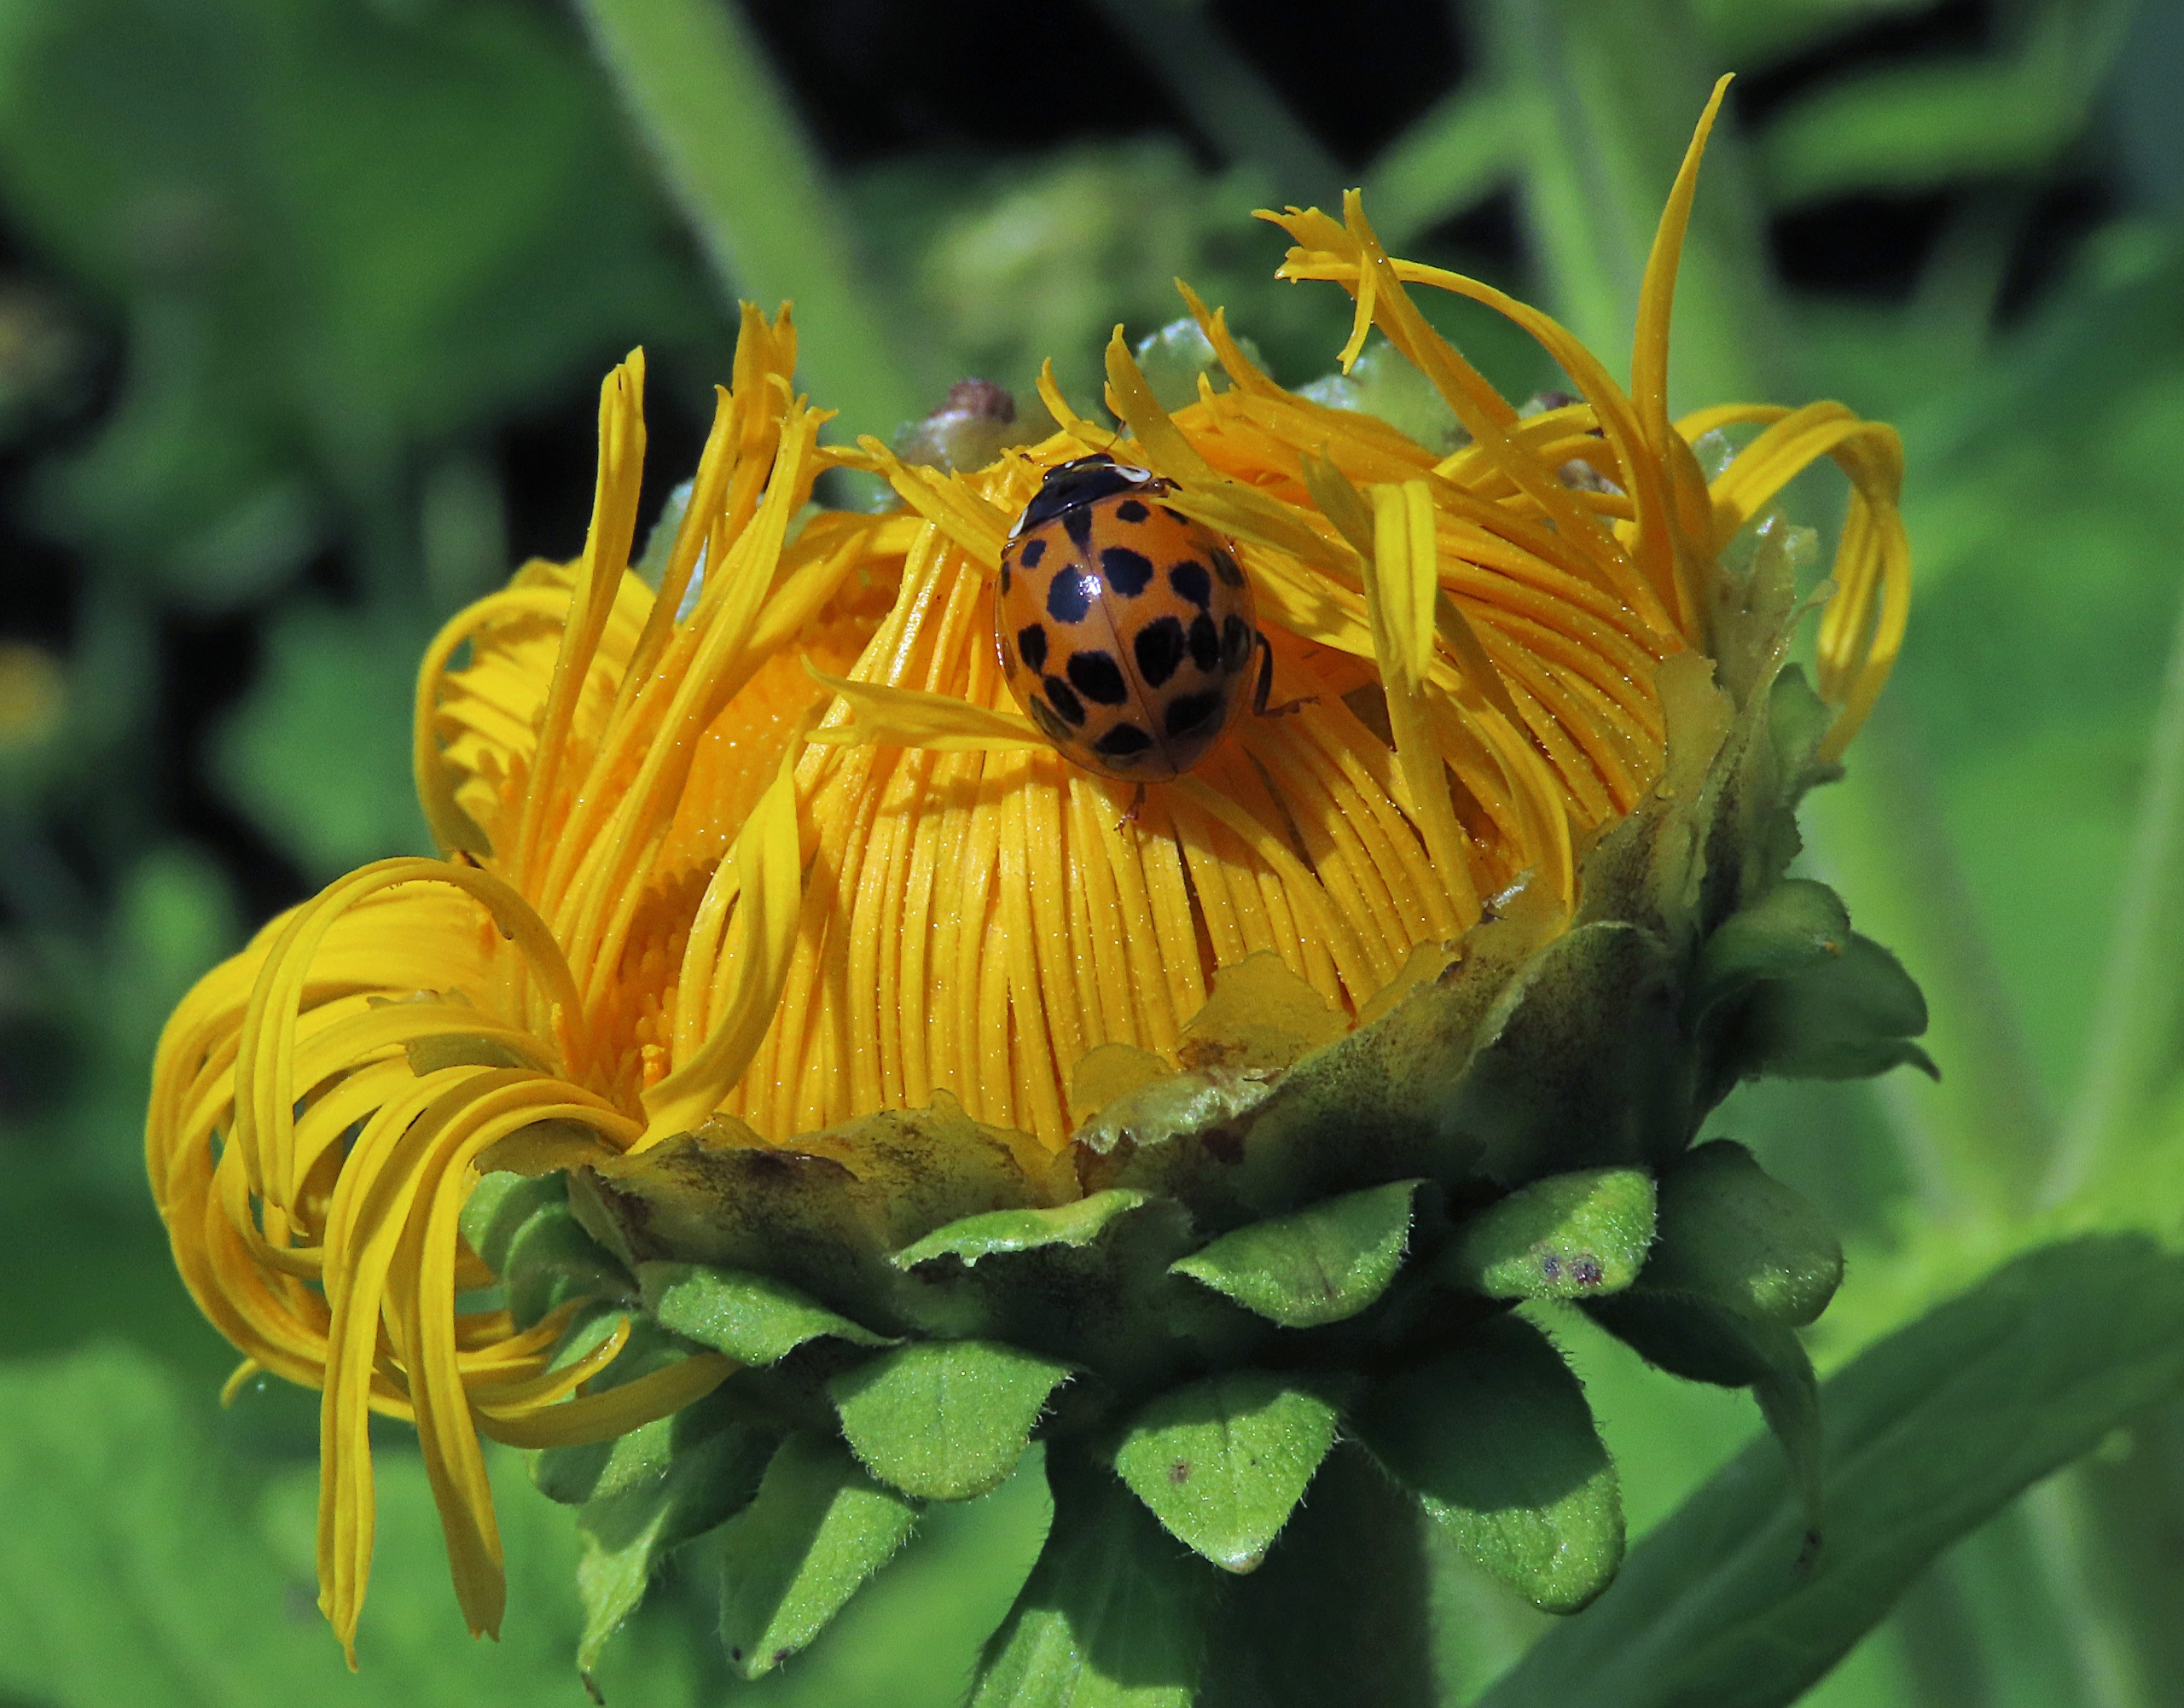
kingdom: Animalia
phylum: Arthropoda
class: Insecta
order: Coleoptera
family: Coccinellidae
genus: Harmonia
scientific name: Harmonia axyridis
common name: Harlekinmariehøne
